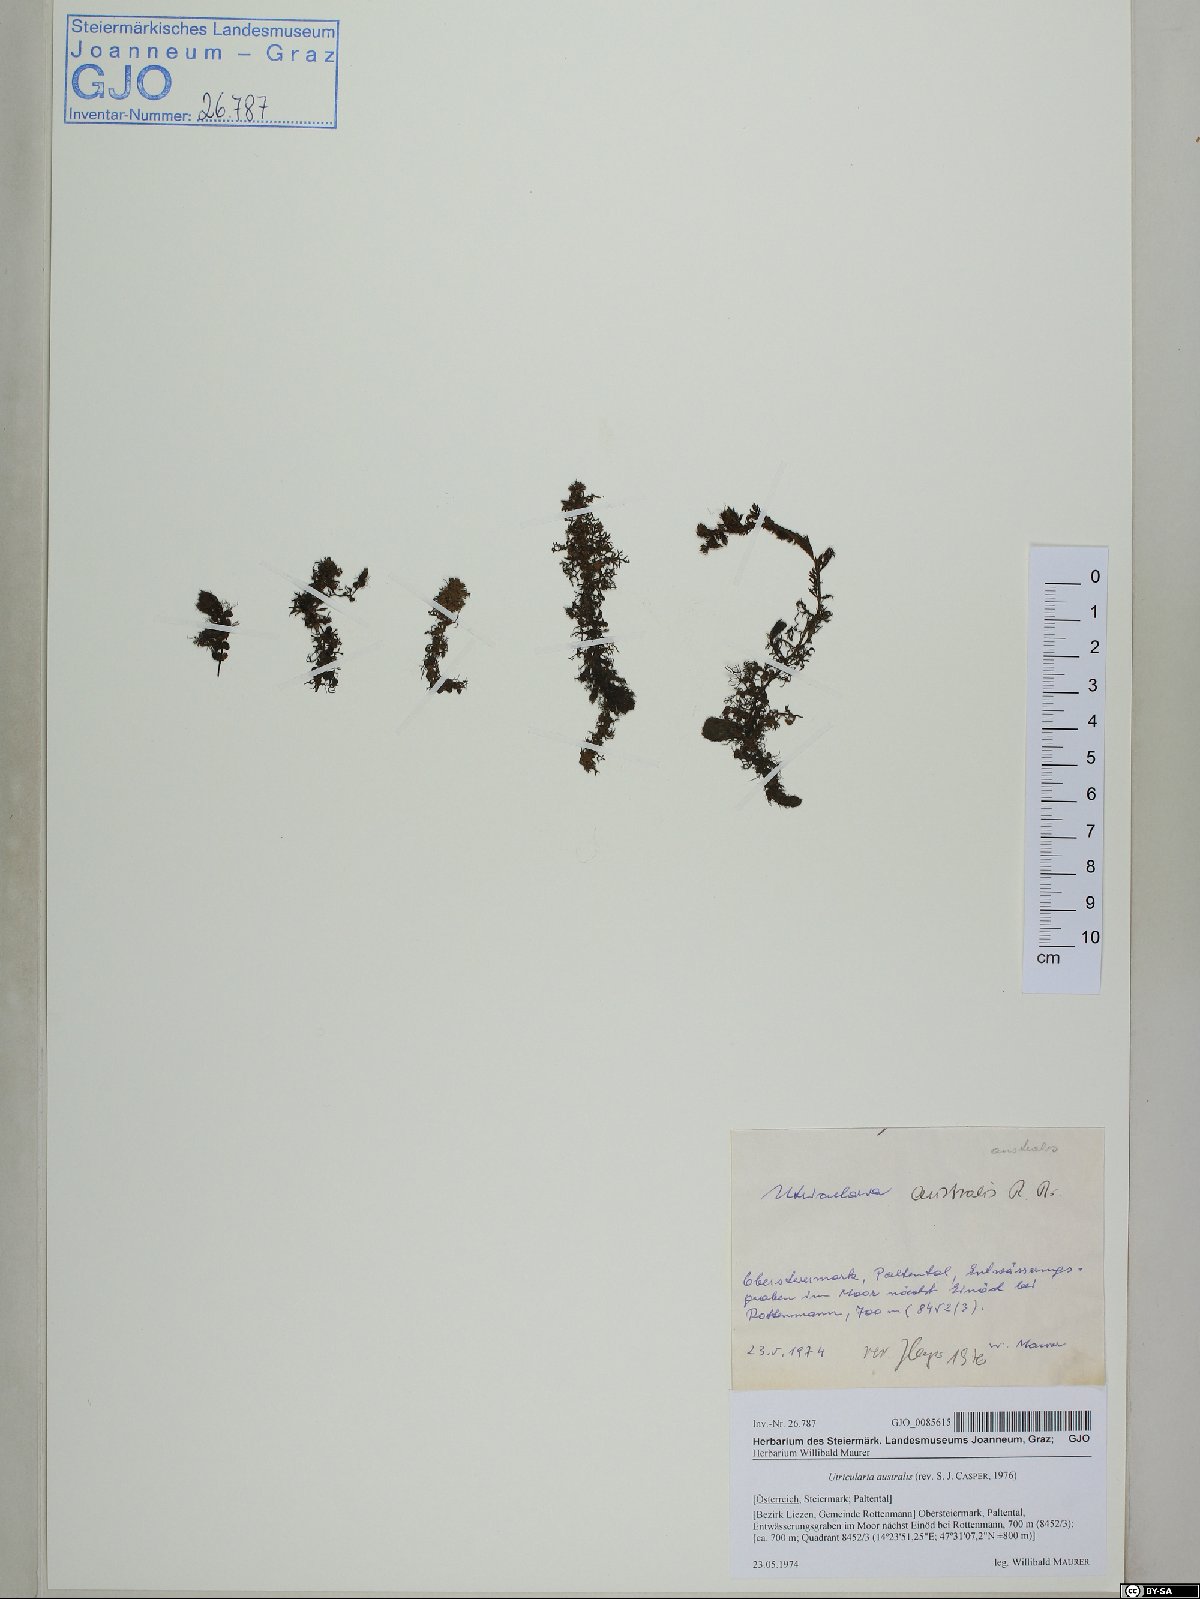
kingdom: Plantae
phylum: Tracheophyta
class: Magnoliopsida
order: Lamiales
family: Lentibulariaceae
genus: Utricularia
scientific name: Utricularia australis
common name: Bladderwort
